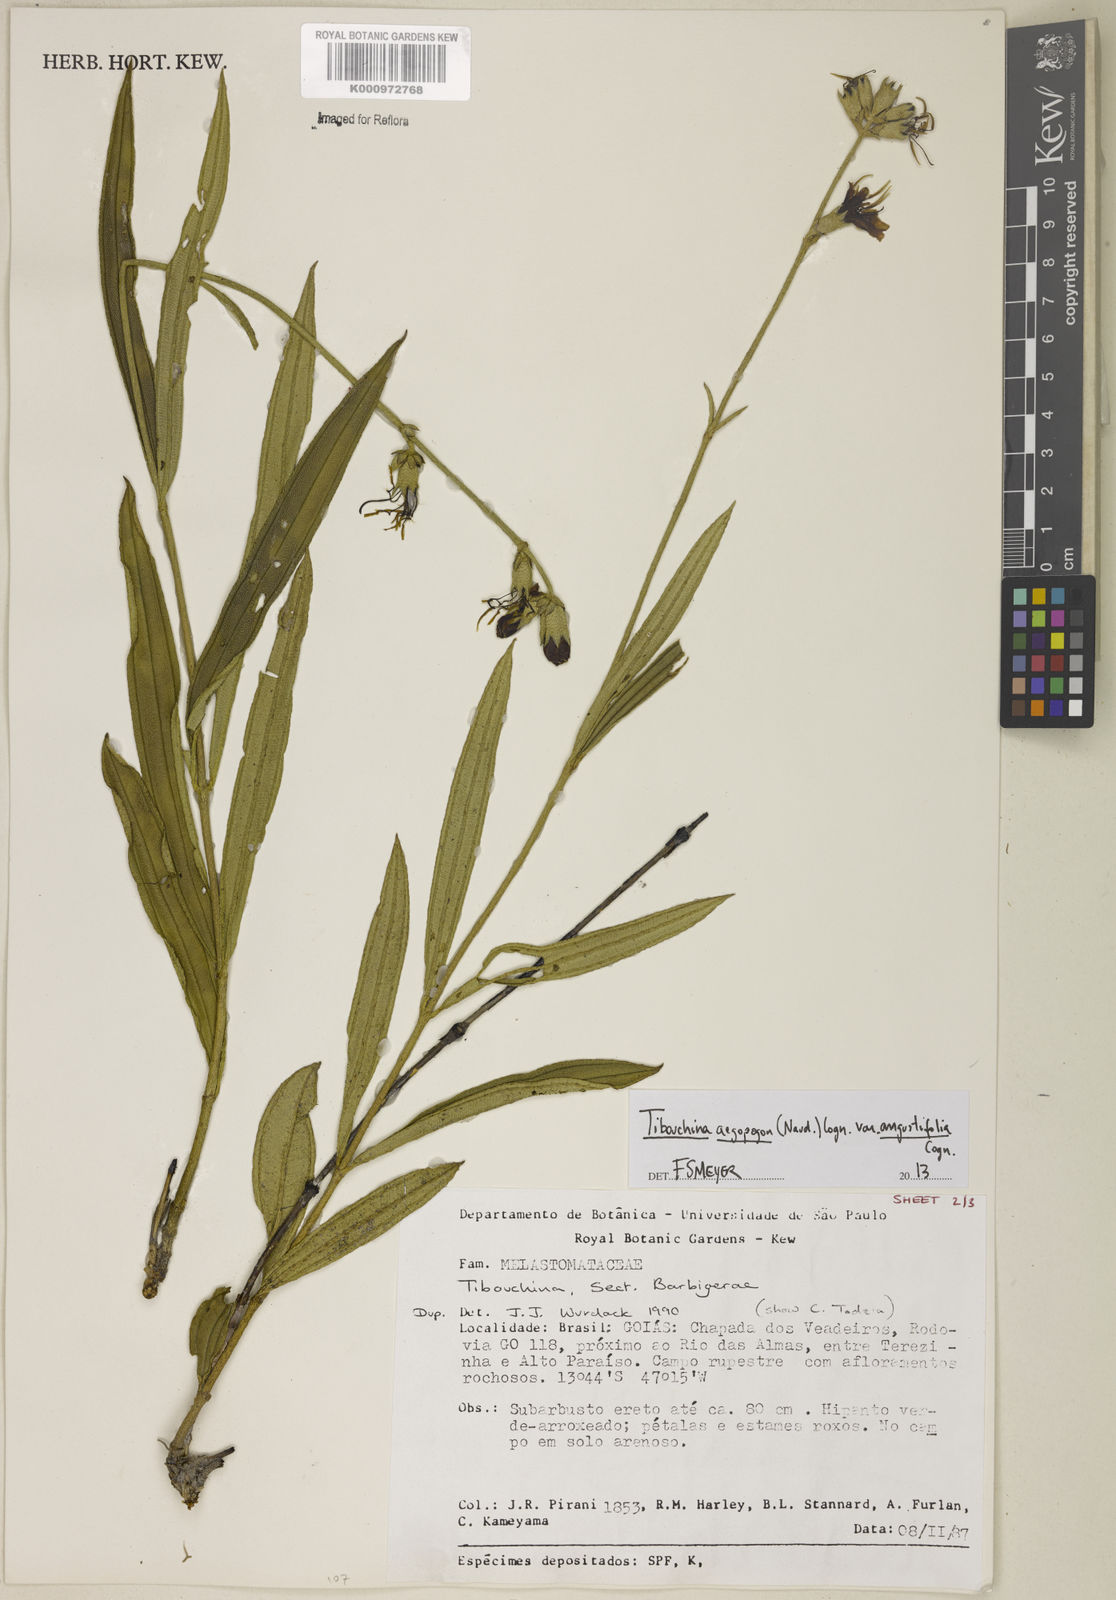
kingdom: Plantae
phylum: Tracheophyta
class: Magnoliopsida
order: Myrtales
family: Melastomataceae
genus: Pleroma
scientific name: Pleroma aegopogon
